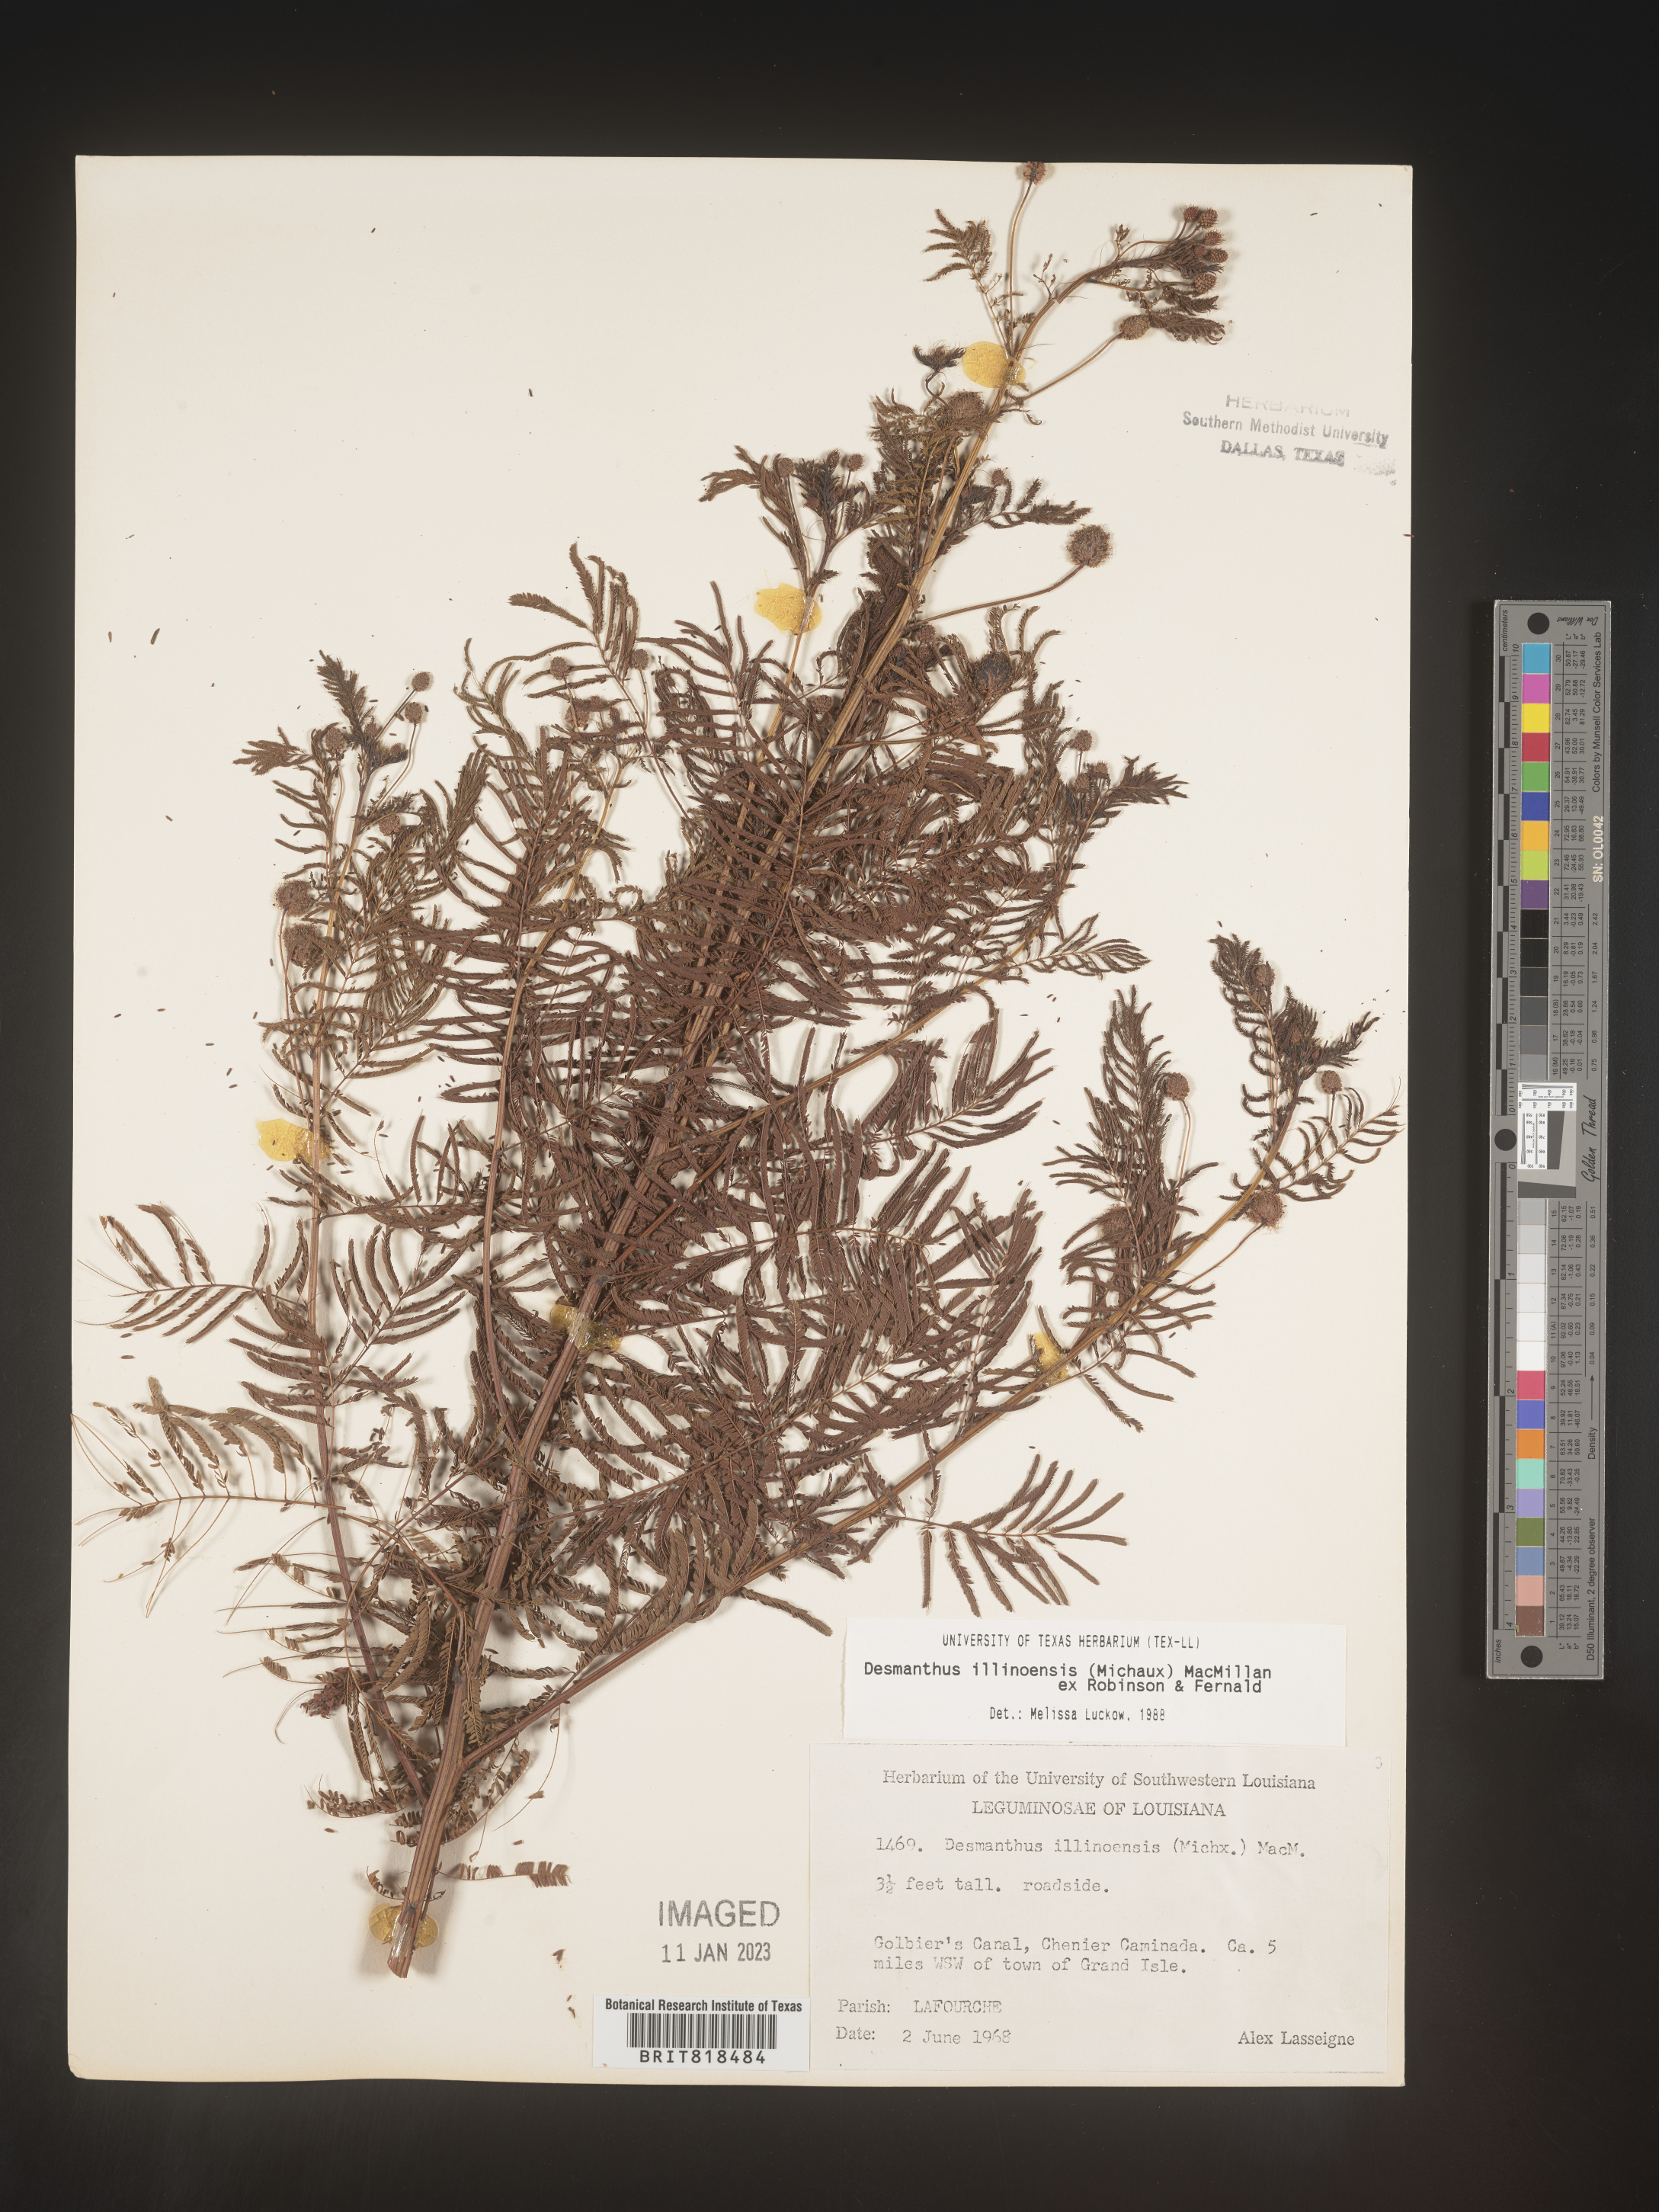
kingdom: Plantae
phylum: Tracheophyta
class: Magnoliopsida
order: Fabales
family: Fabaceae
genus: Desmanthus
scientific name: Desmanthus illinoensis
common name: Illinois bundle-flower
